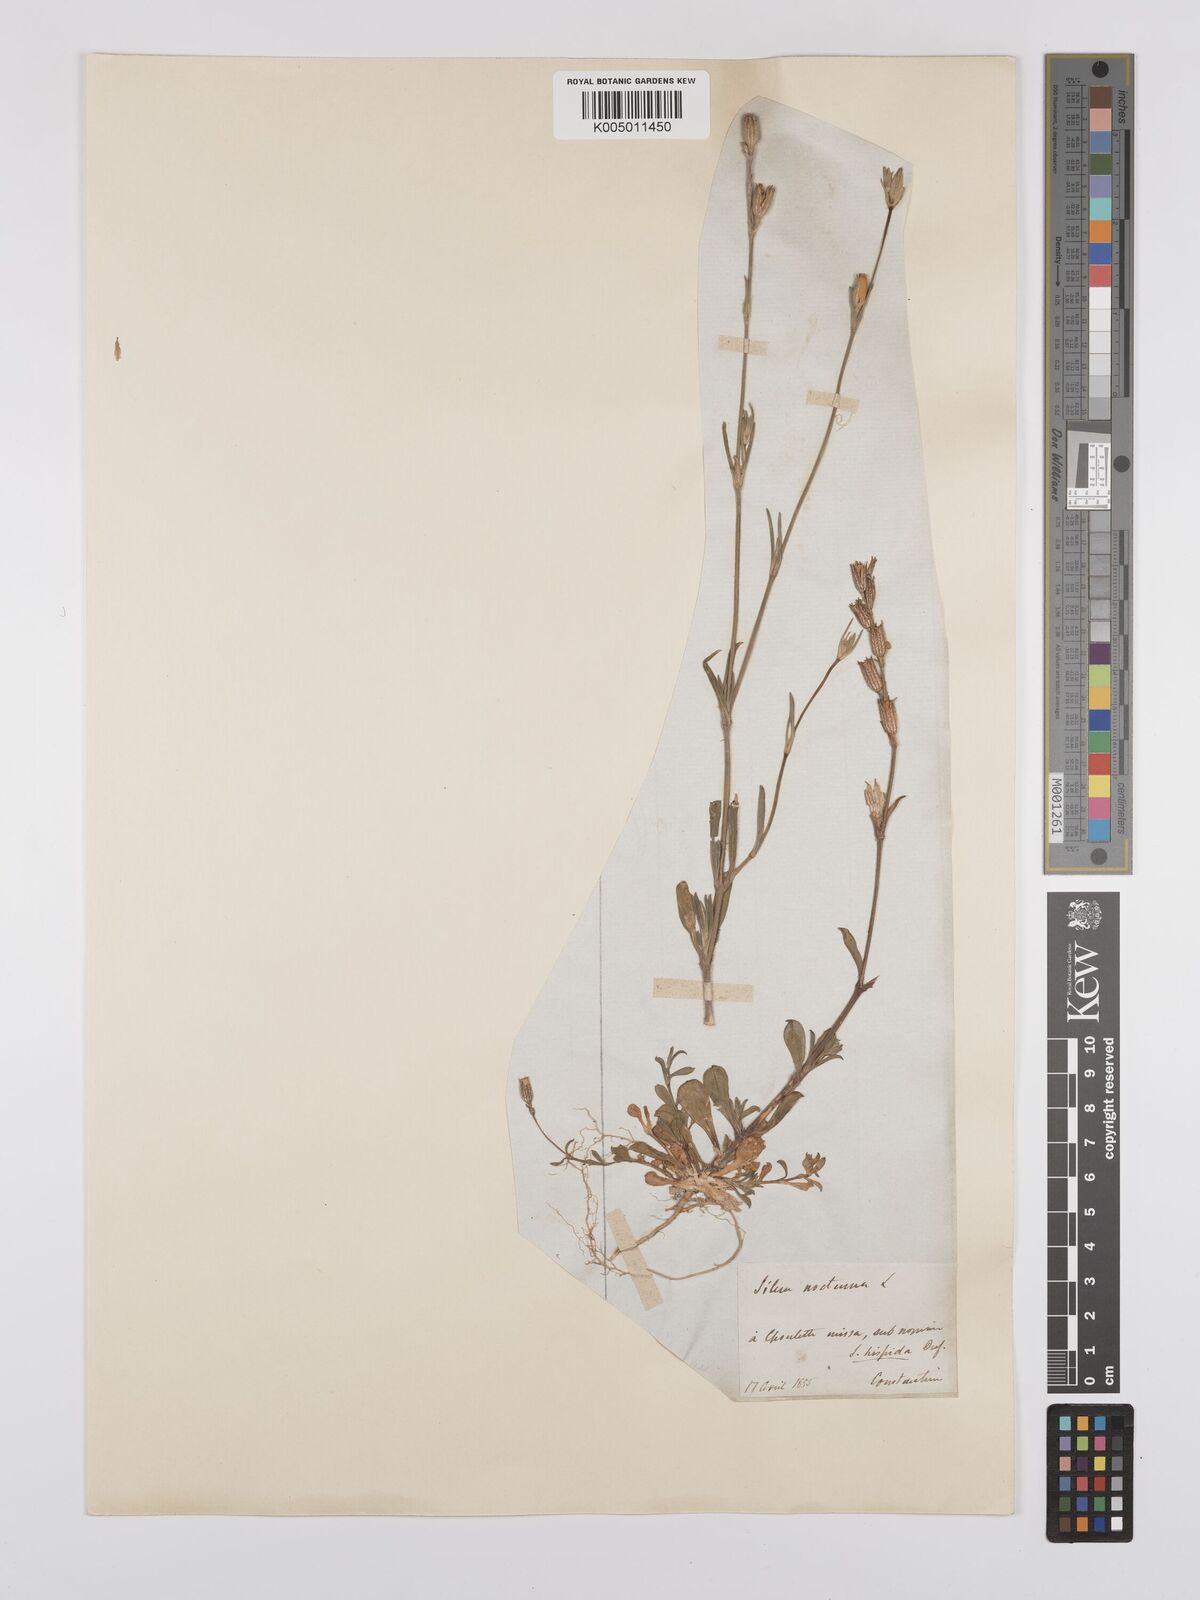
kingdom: Plantae
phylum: Tracheophyta
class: Magnoliopsida
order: Caryophyllales
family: Caryophyllaceae
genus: Silene
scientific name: Silene nocturna
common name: Mediterranean catchfly
